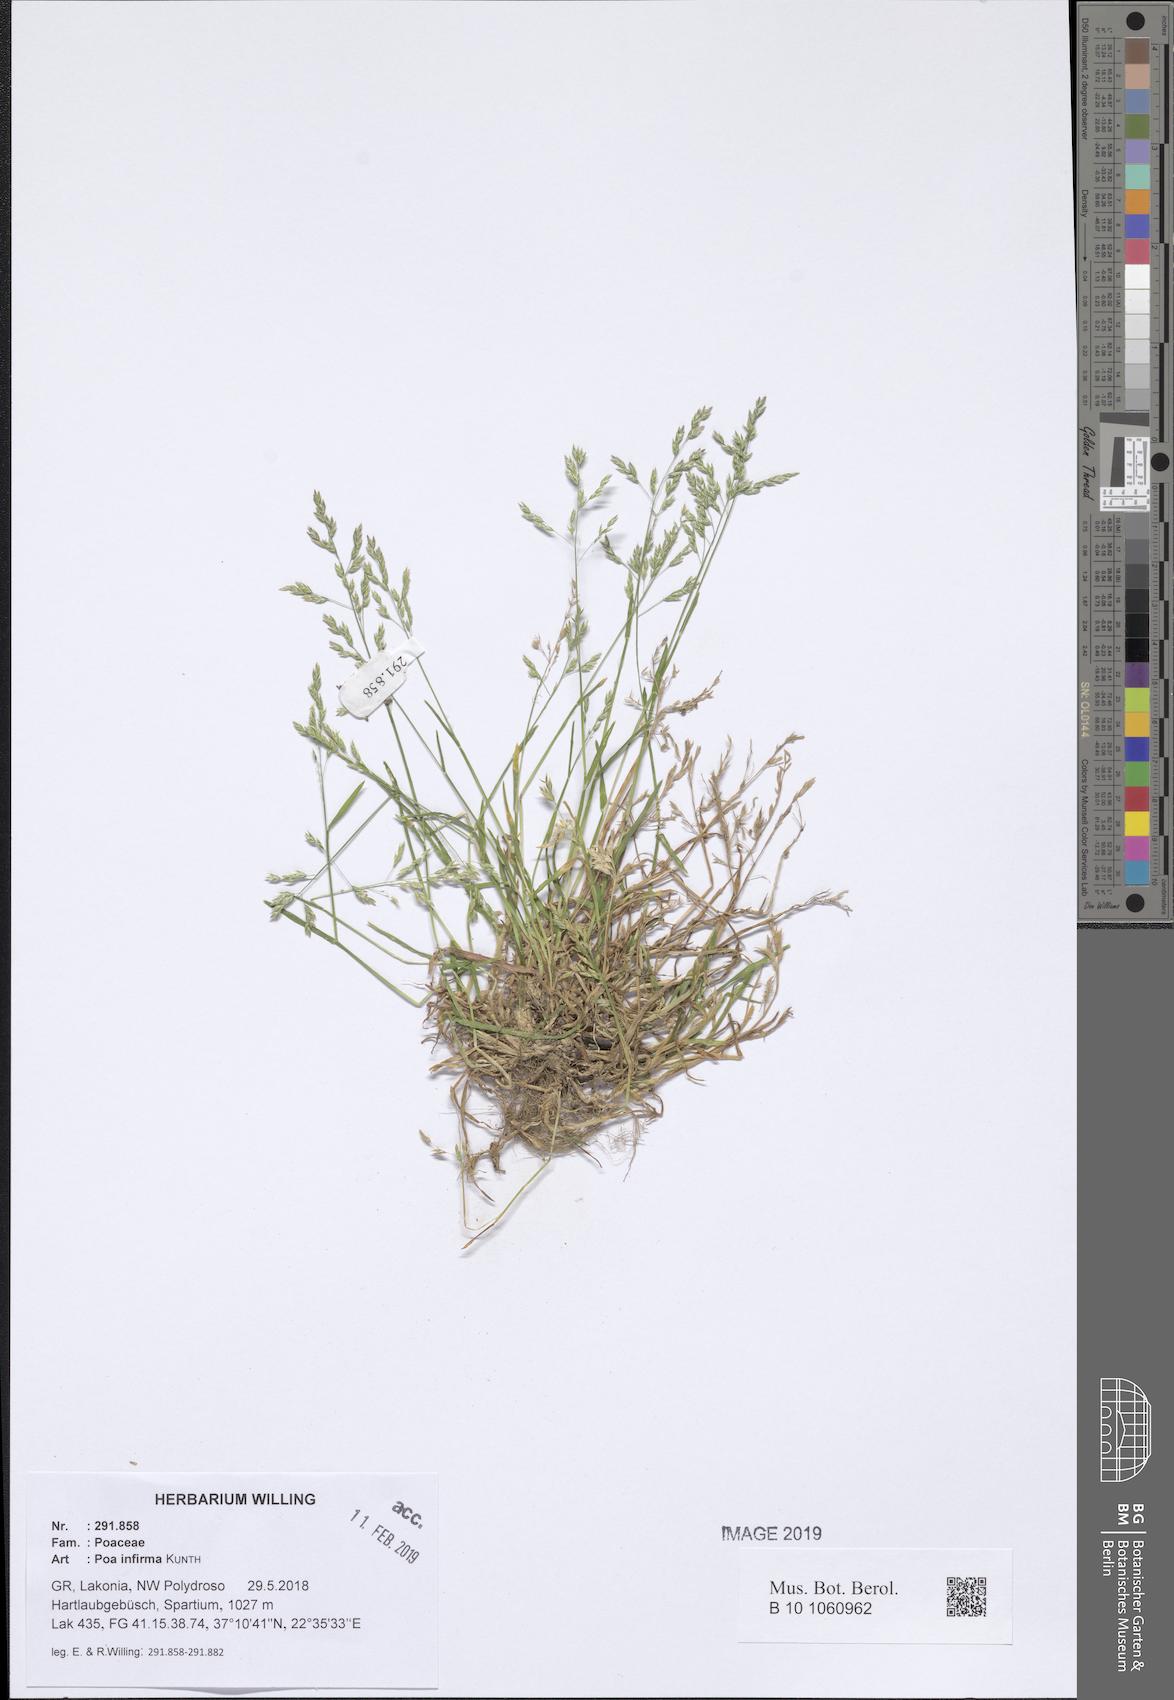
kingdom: Plantae
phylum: Tracheophyta
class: Liliopsida
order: Poales
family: Poaceae
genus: Poa
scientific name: Poa infirma
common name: Weak bluegrass
